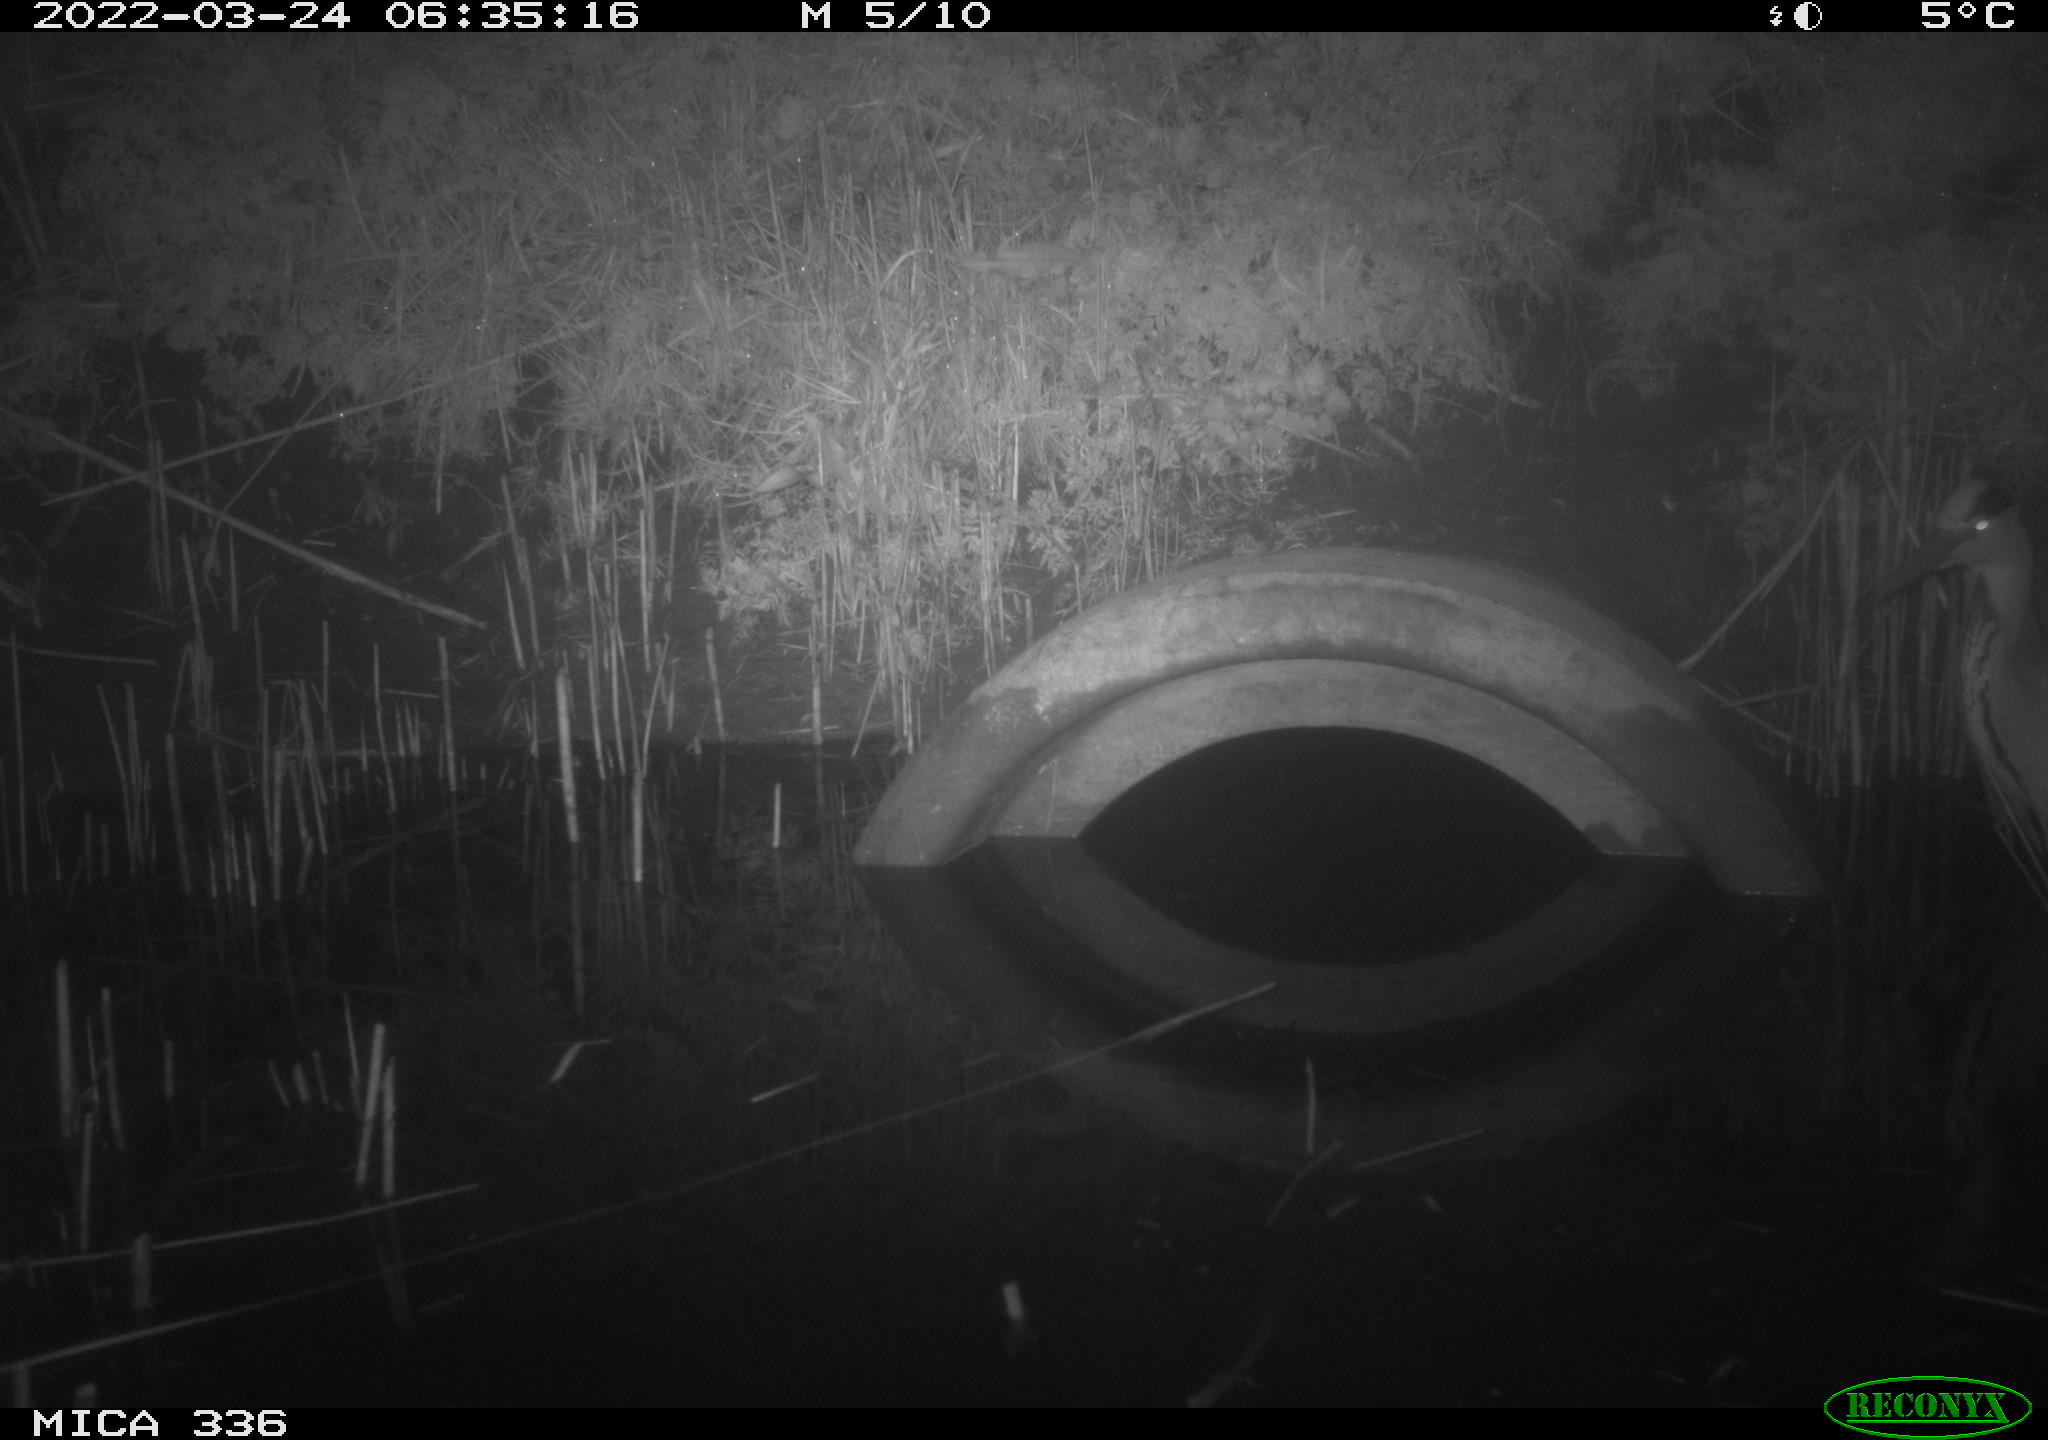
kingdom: Animalia
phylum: Chordata
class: Aves
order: Pelecaniformes
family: Ardeidae
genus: Ardea
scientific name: Ardea cinerea
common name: Grey heron
